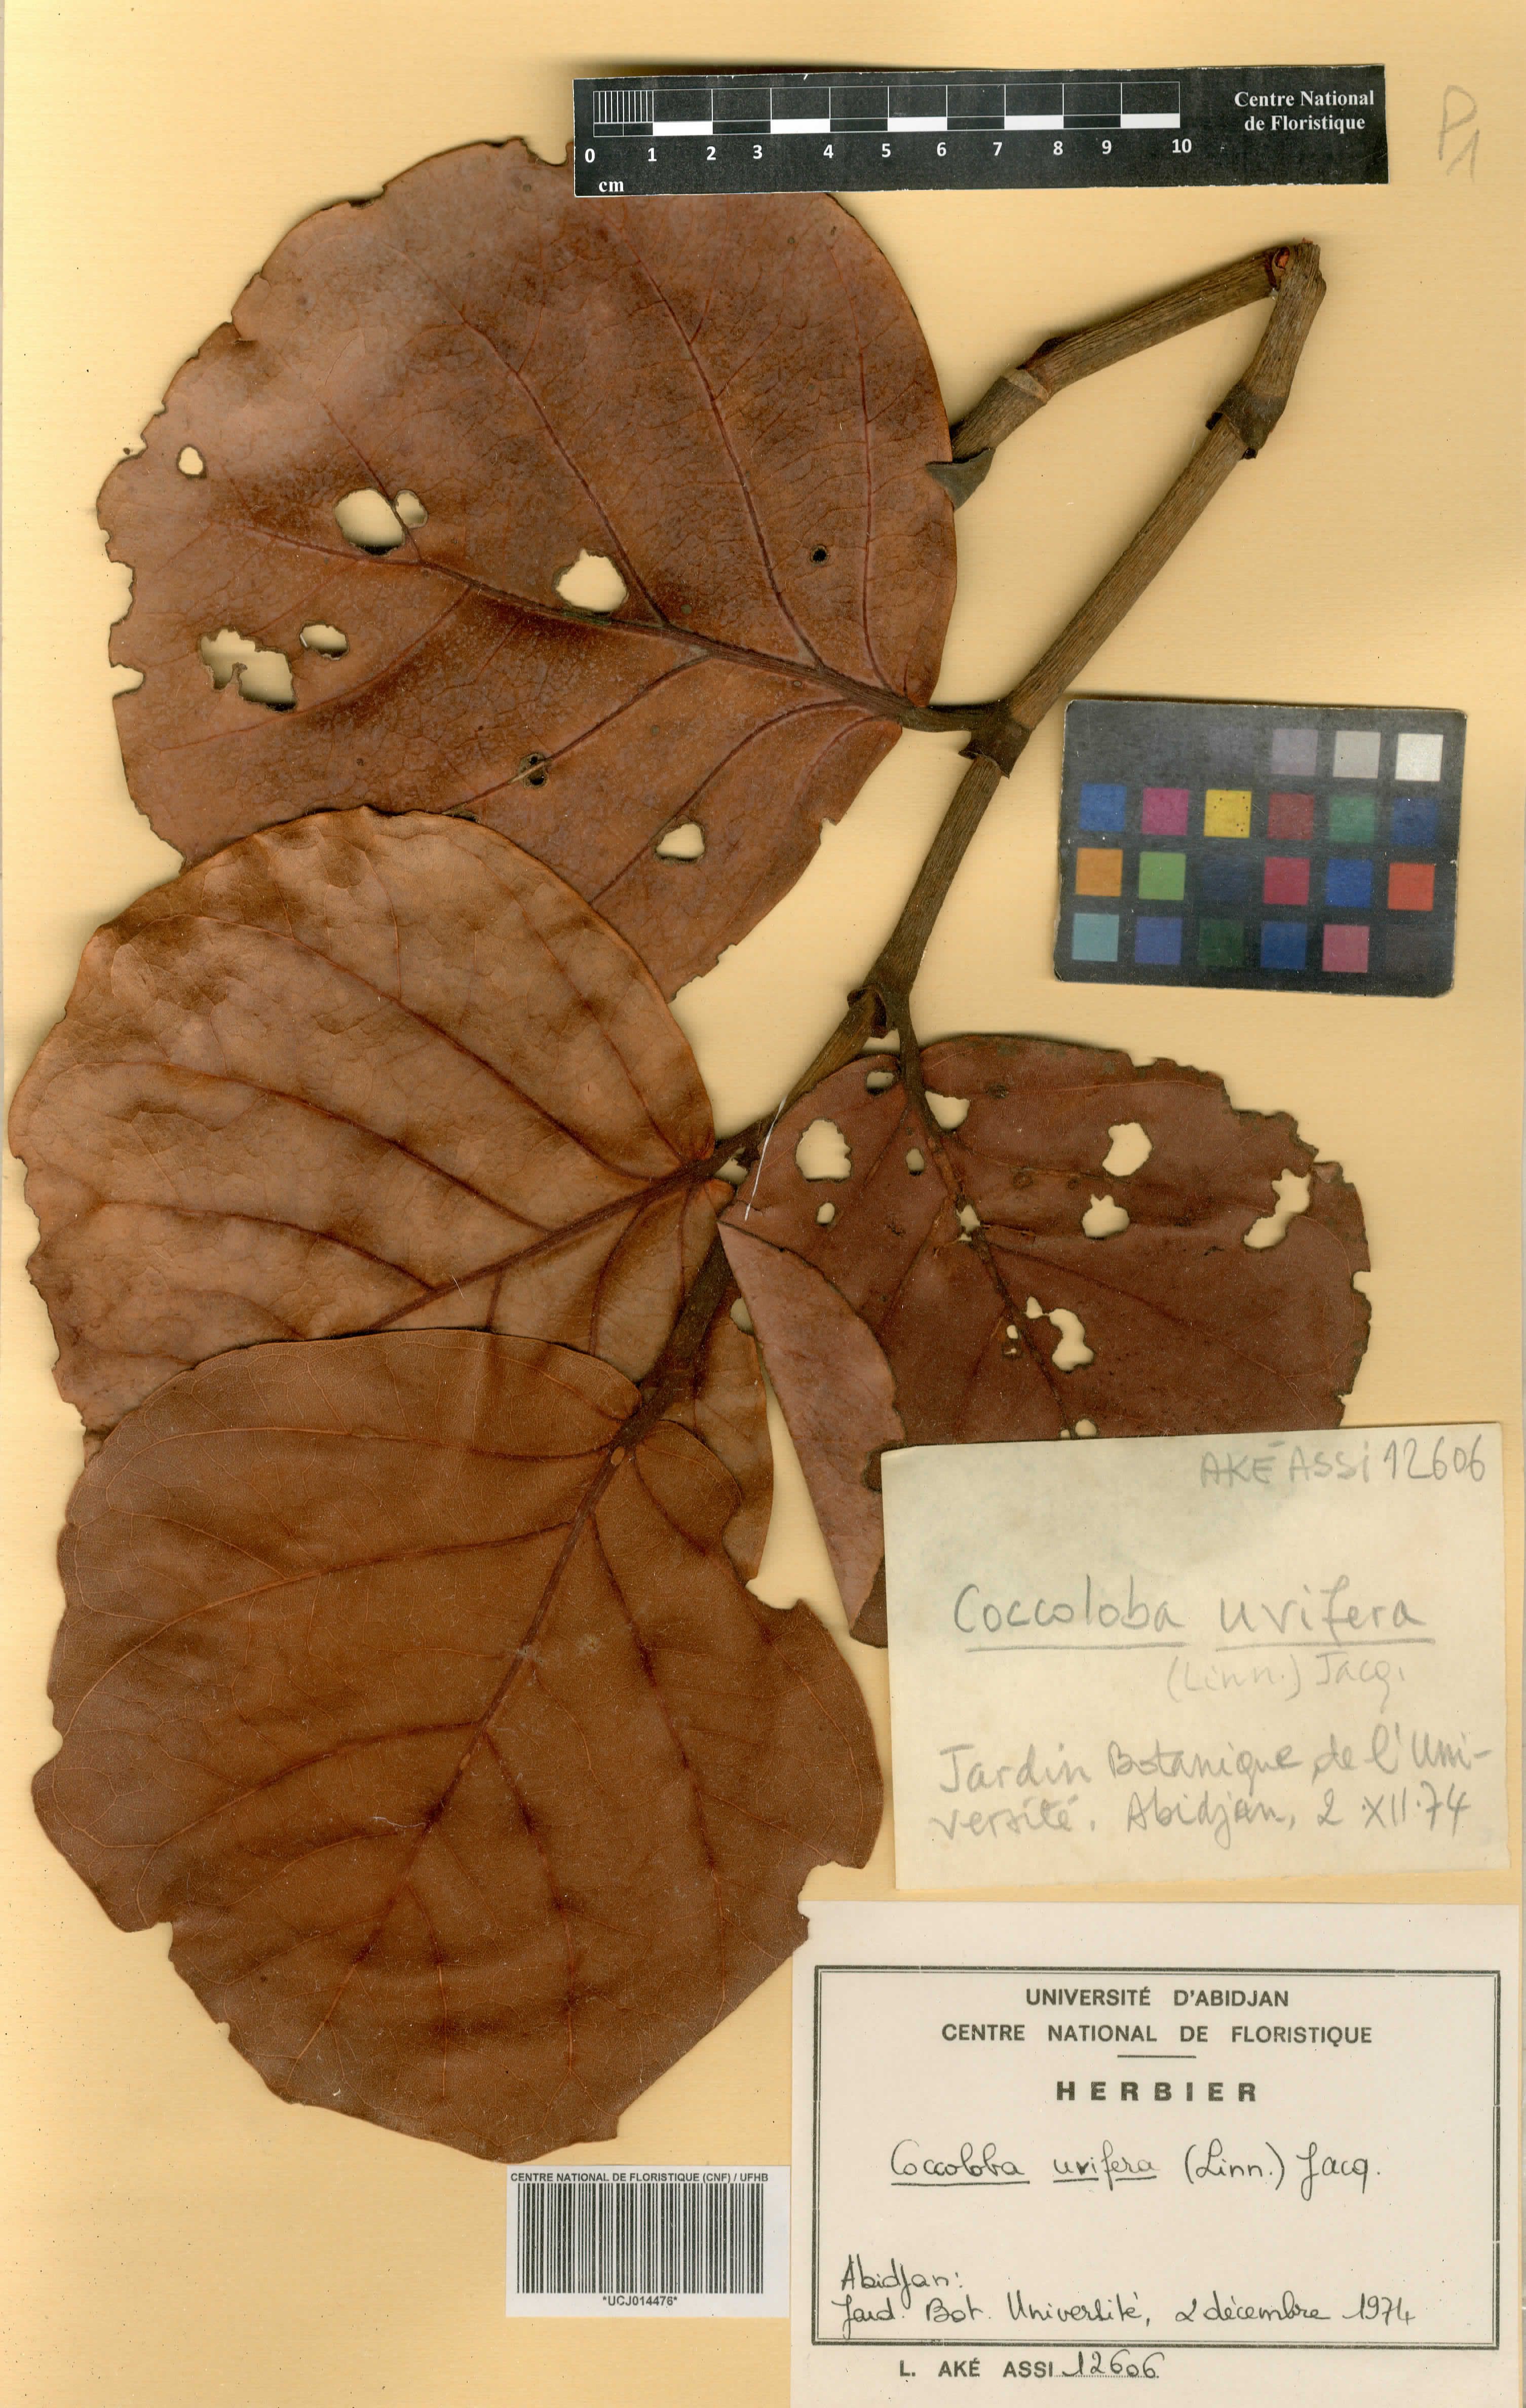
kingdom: Plantae
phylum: Tracheophyta
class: Magnoliopsida
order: Caryophyllales
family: Polygonaceae
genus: Coccoloba
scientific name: Coccoloba uvifera
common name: Seagrape
